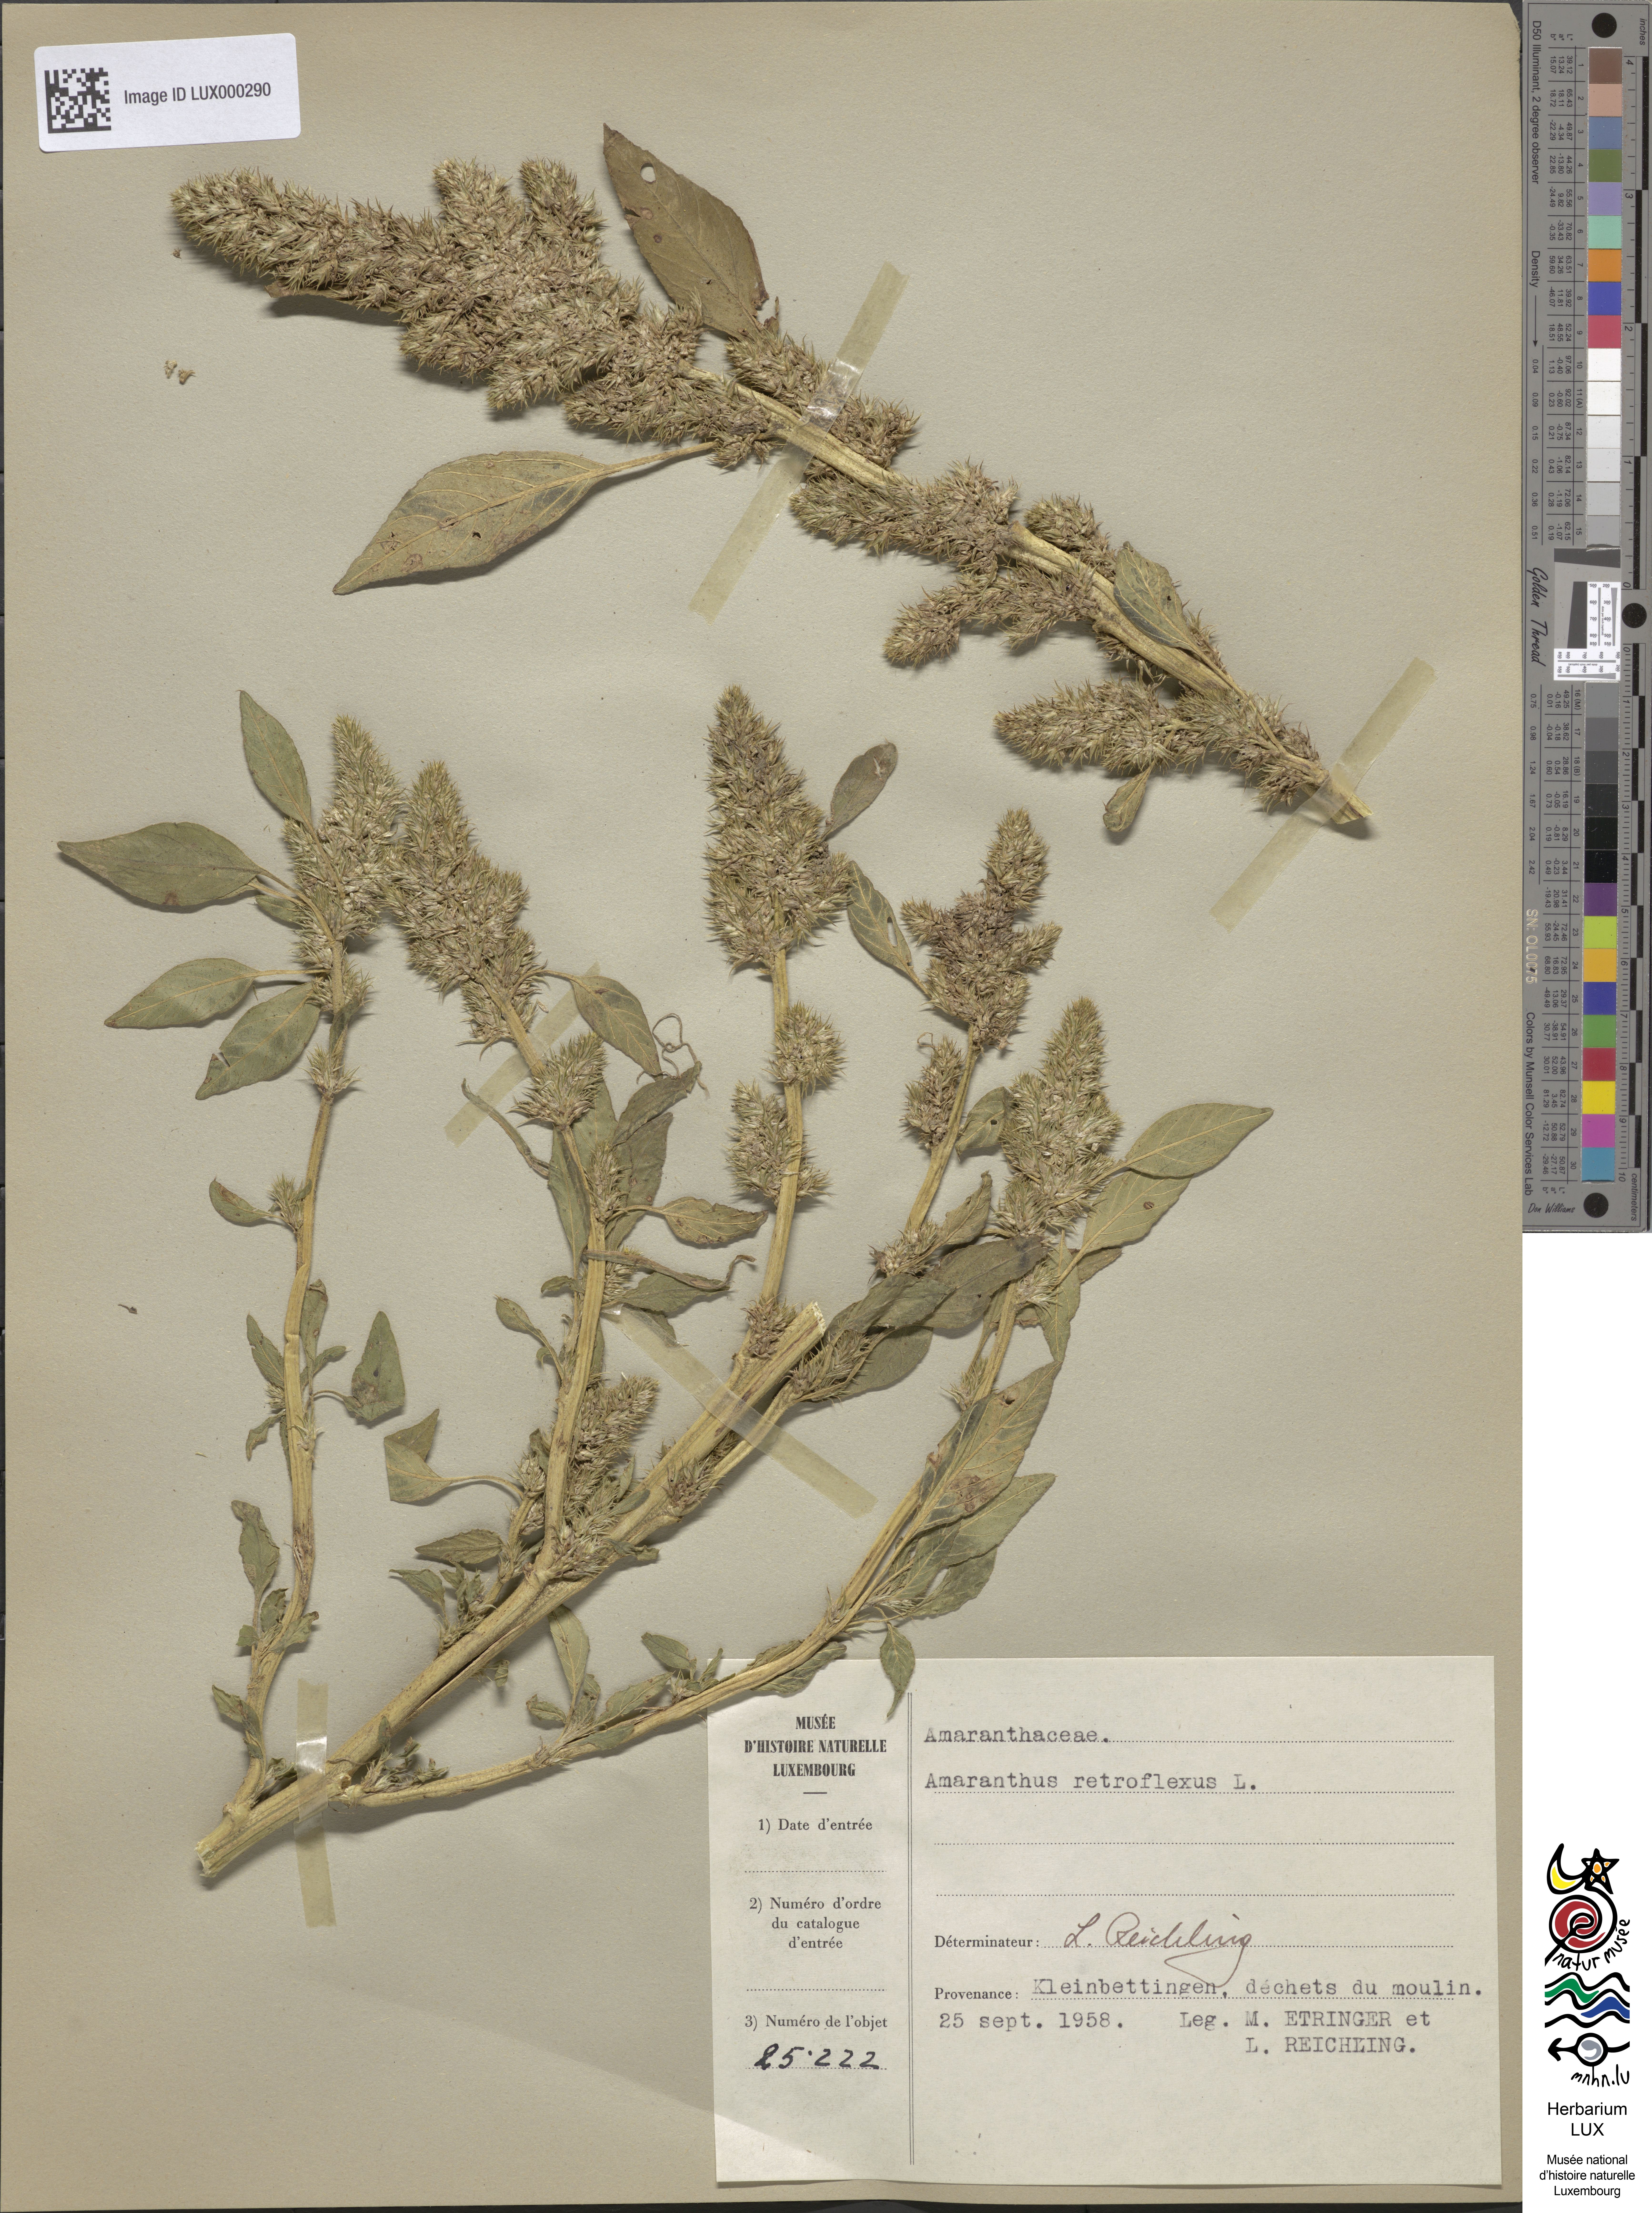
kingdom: Plantae
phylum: Tracheophyta
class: Magnoliopsida
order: Caryophyllales
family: Amaranthaceae
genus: Amaranthus
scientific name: Amaranthus retroflexus
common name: Redroot amaranth
